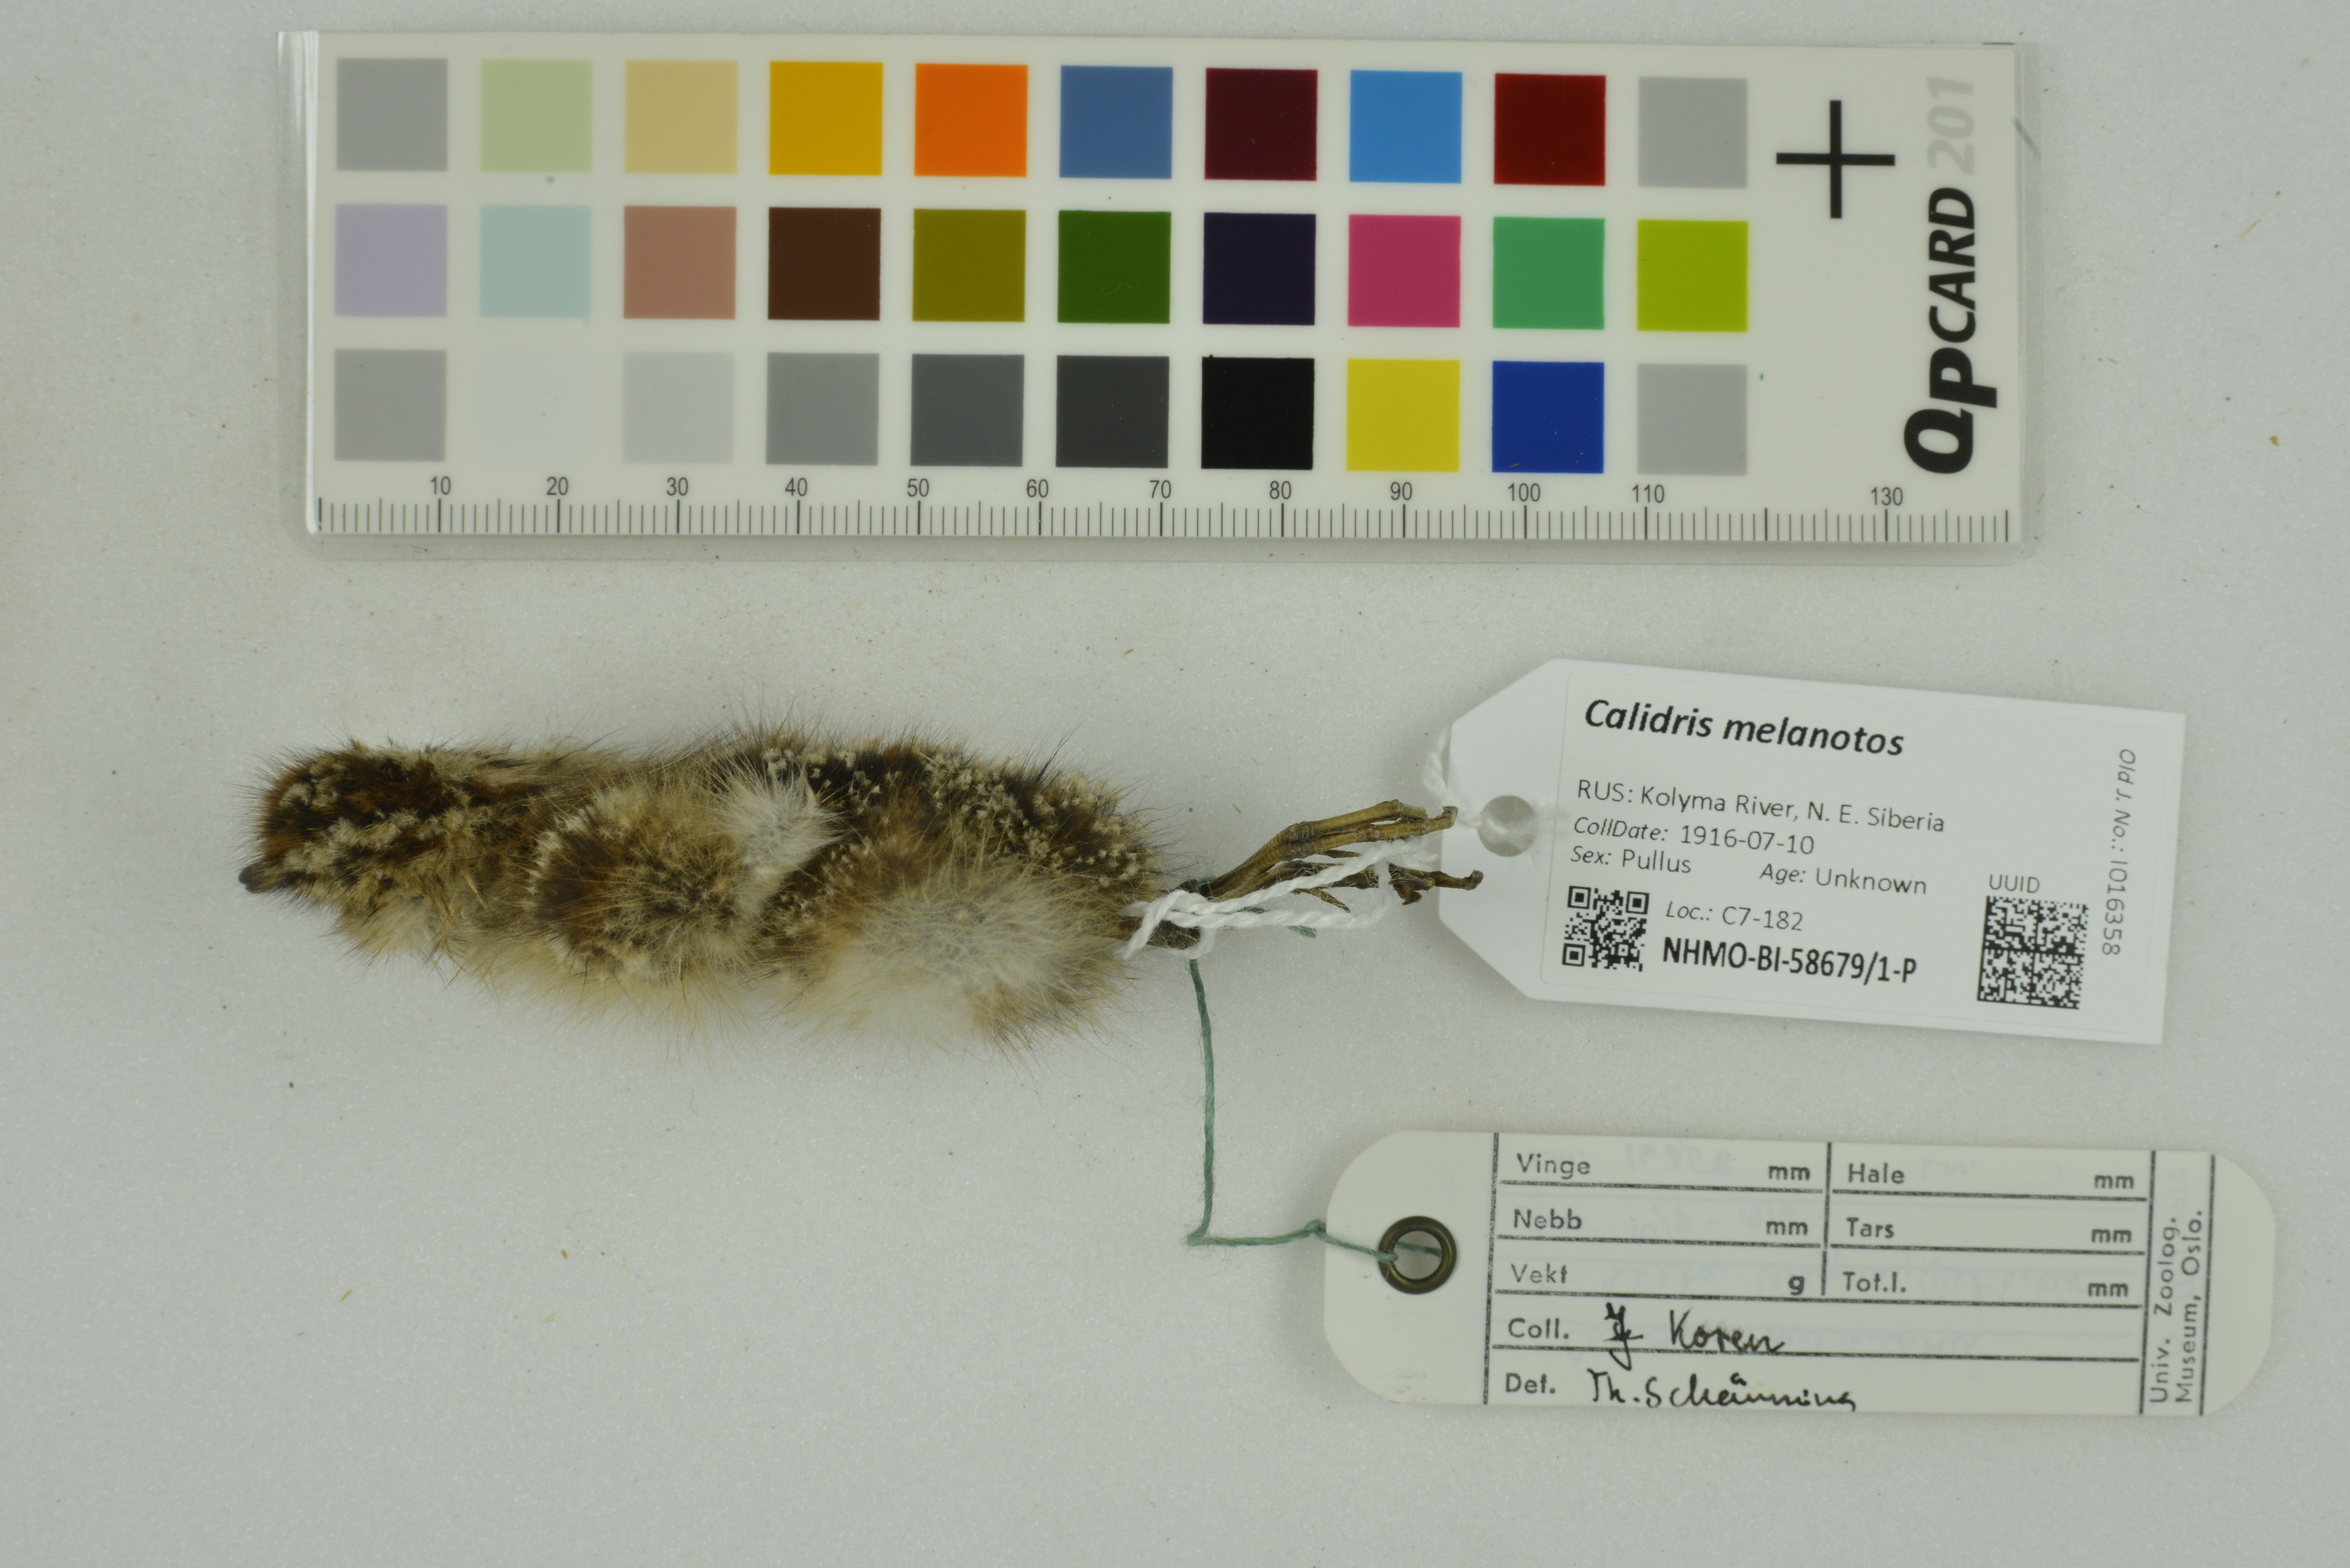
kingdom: Animalia
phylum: Chordata
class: Aves
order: Charadriiformes
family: Scolopacidae
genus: Calidris
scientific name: Calidris melanotos
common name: Pectoral sandpiper
